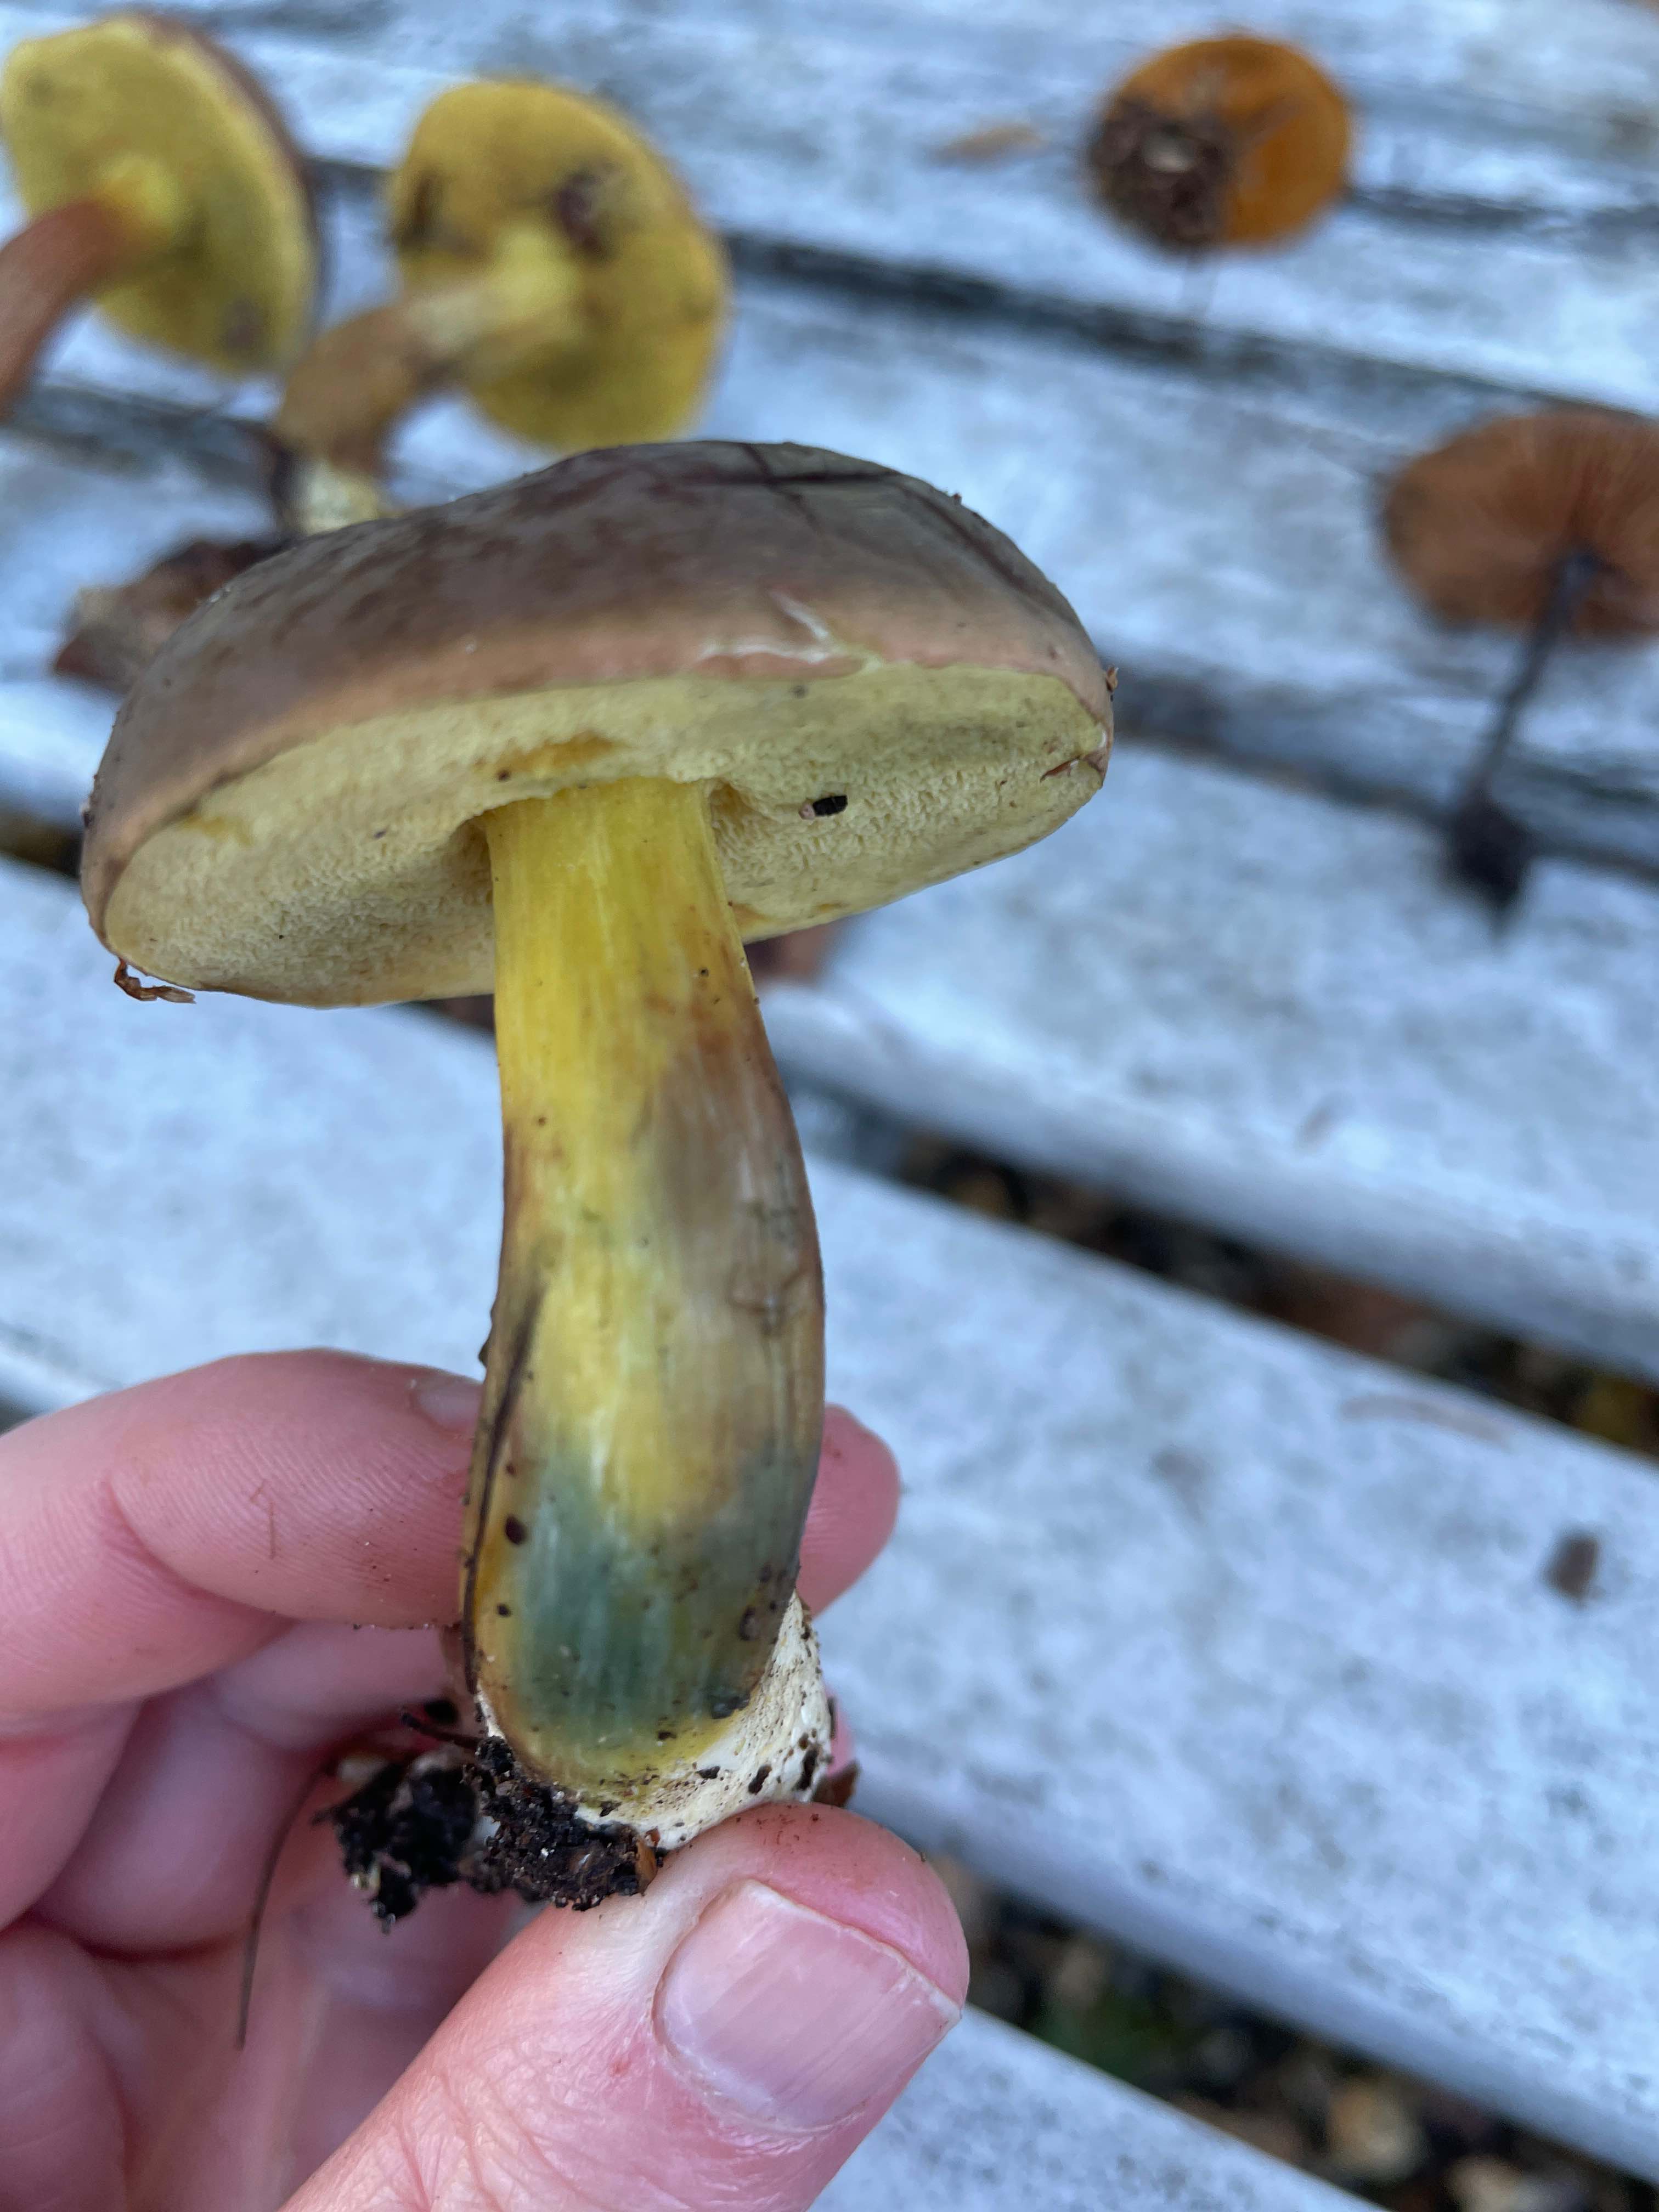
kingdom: Fungi
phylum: Basidiomycota
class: Agaricomycetes
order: Boletales
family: Boletaceae
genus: Xerocomellus
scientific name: Xerocomellus pruinatus
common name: dugget rørhat
